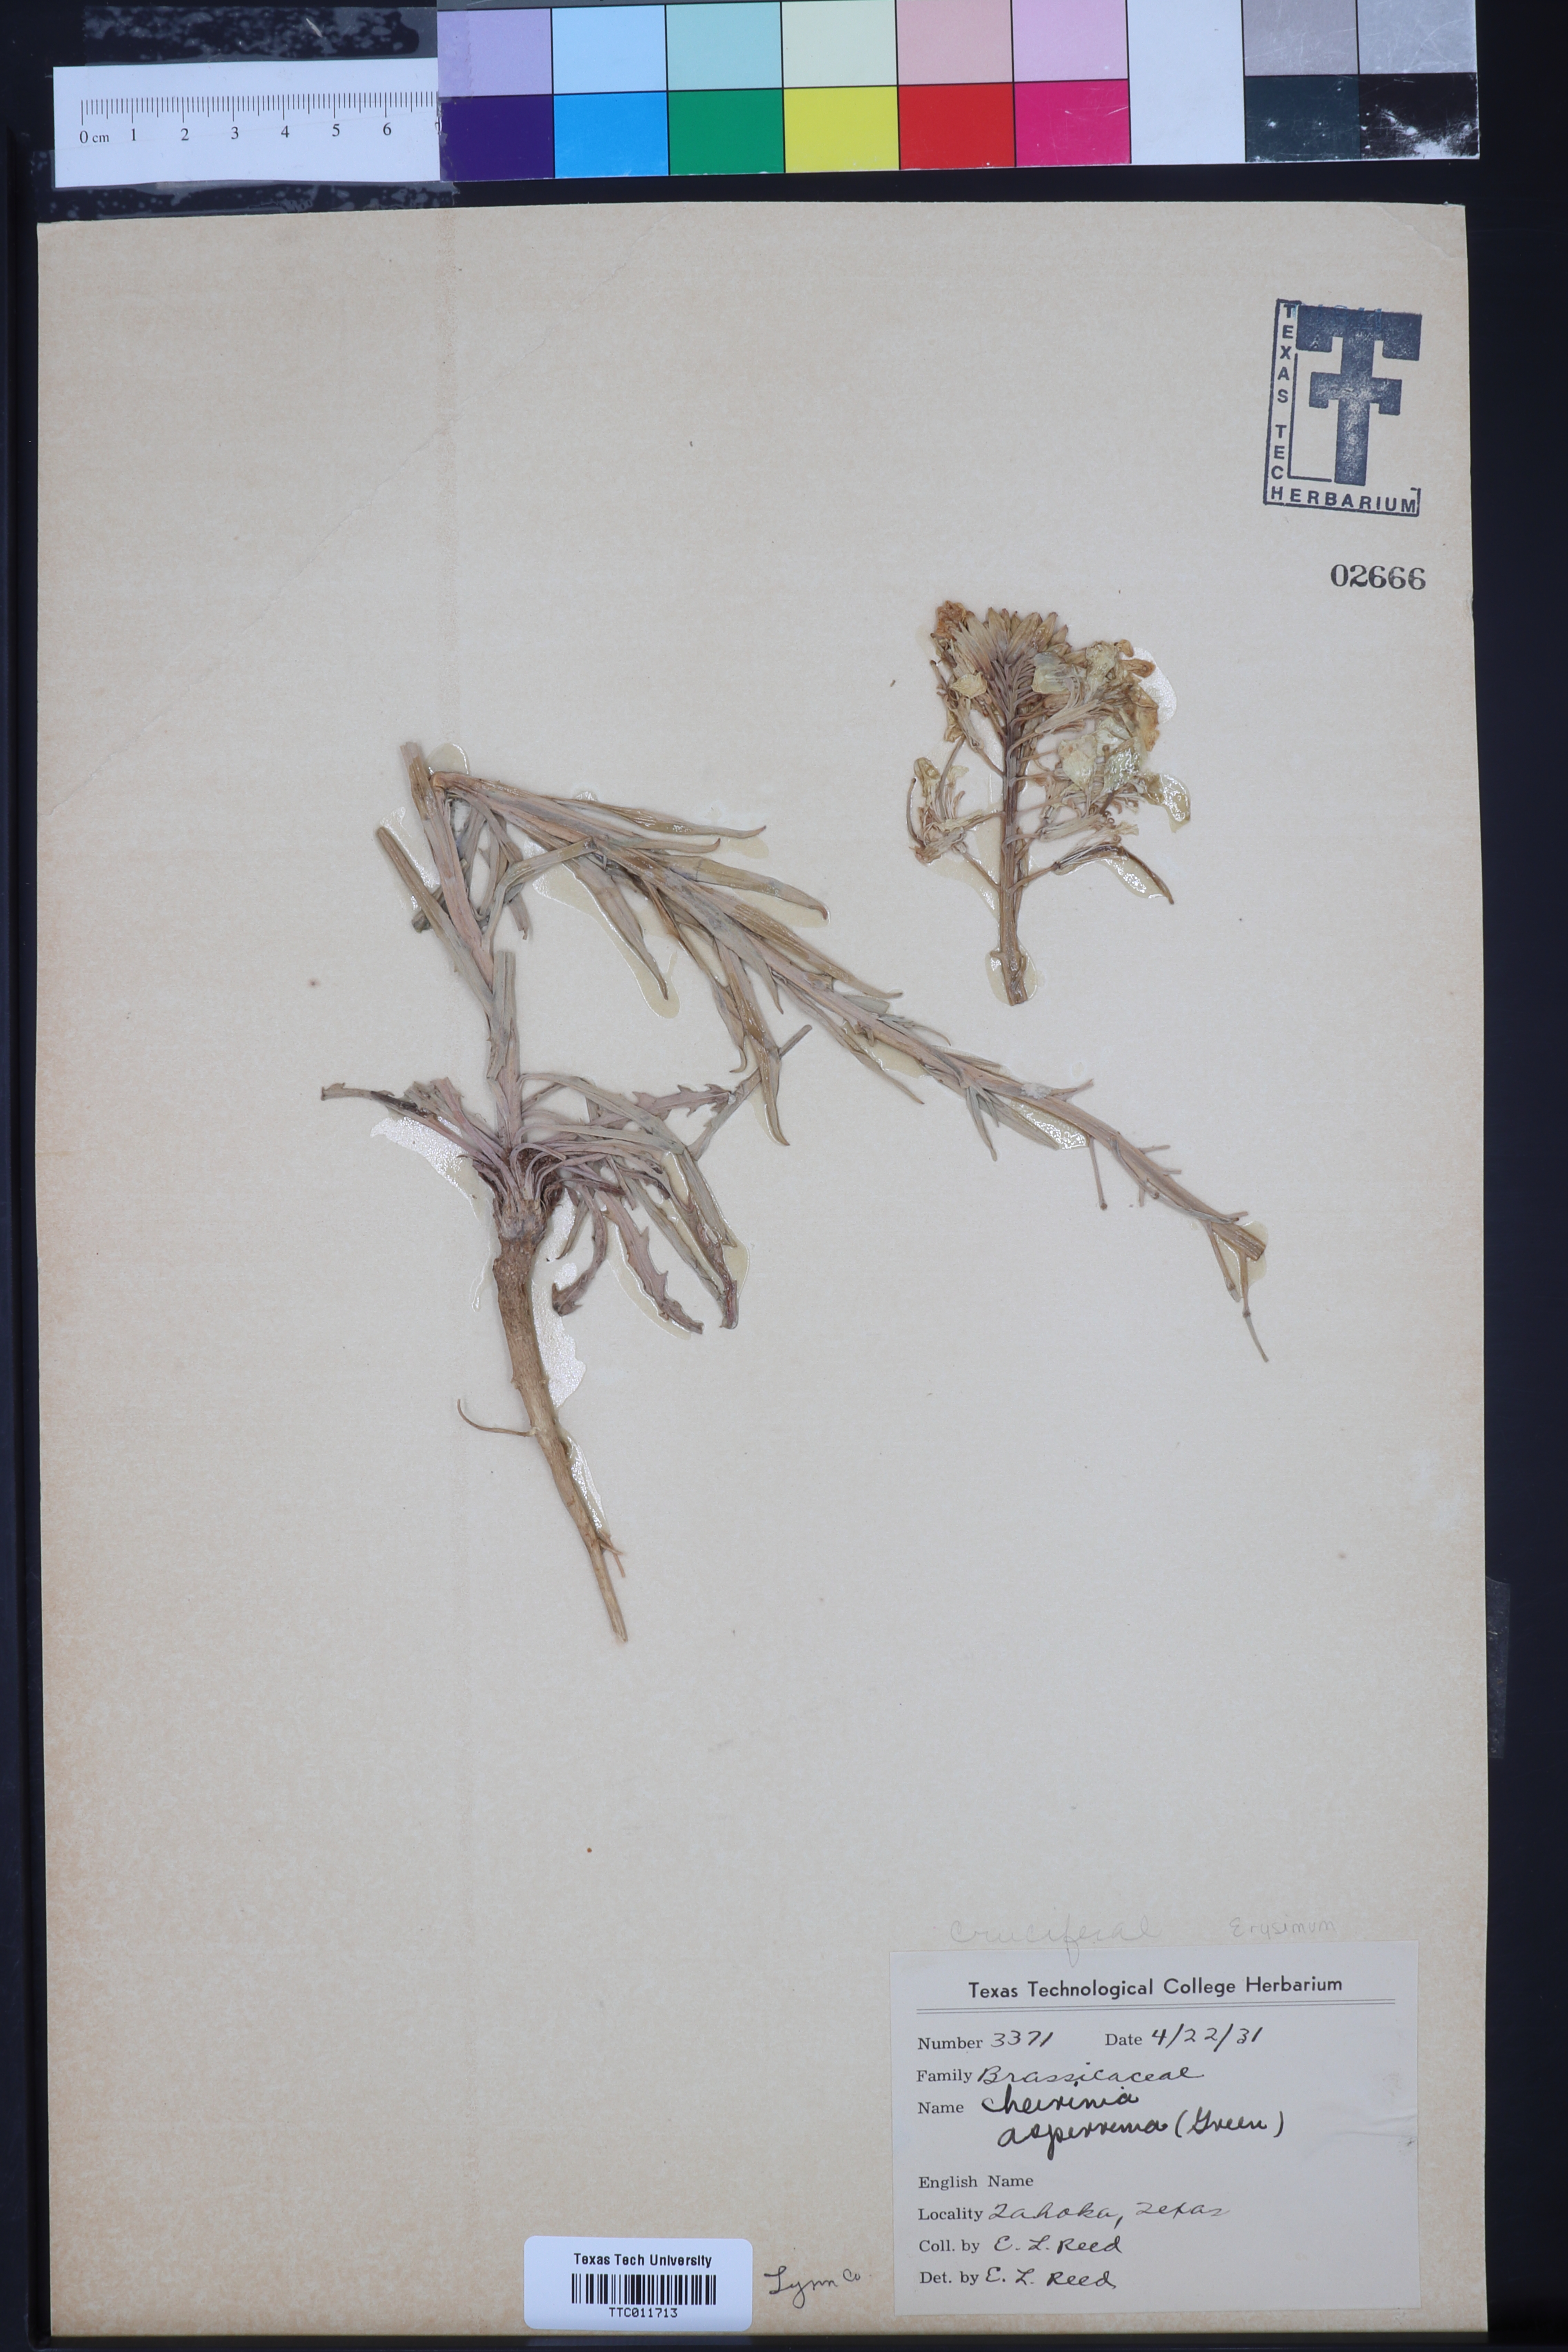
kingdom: Plantae
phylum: Tracheophyta
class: Magnoliopsida
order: Brassicales
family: Brassicaceae
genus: Erysimum
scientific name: Erysimum capitatum
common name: Western wallflower
